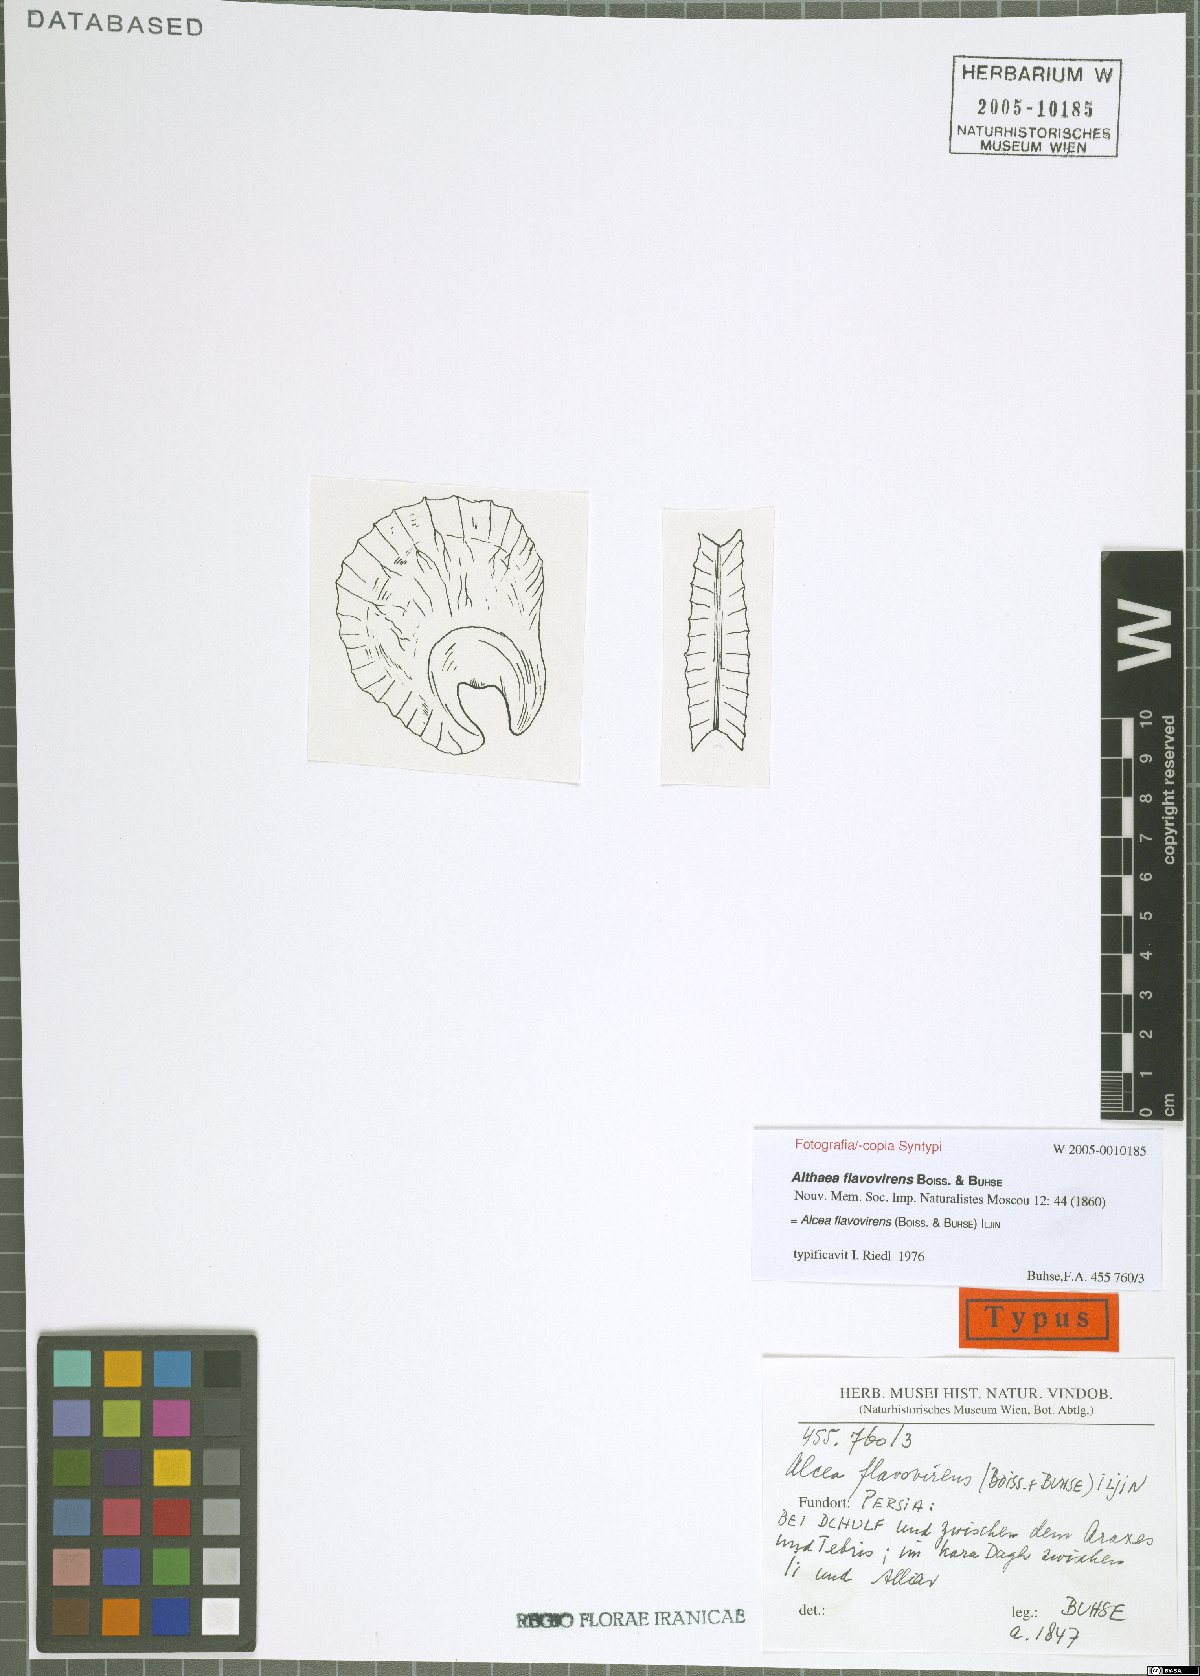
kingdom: Plantae
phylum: Tracheophyta
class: Magnoliopsida
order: Malvales
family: Malvaceae
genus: Alcea
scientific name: Alcea flavovirens
